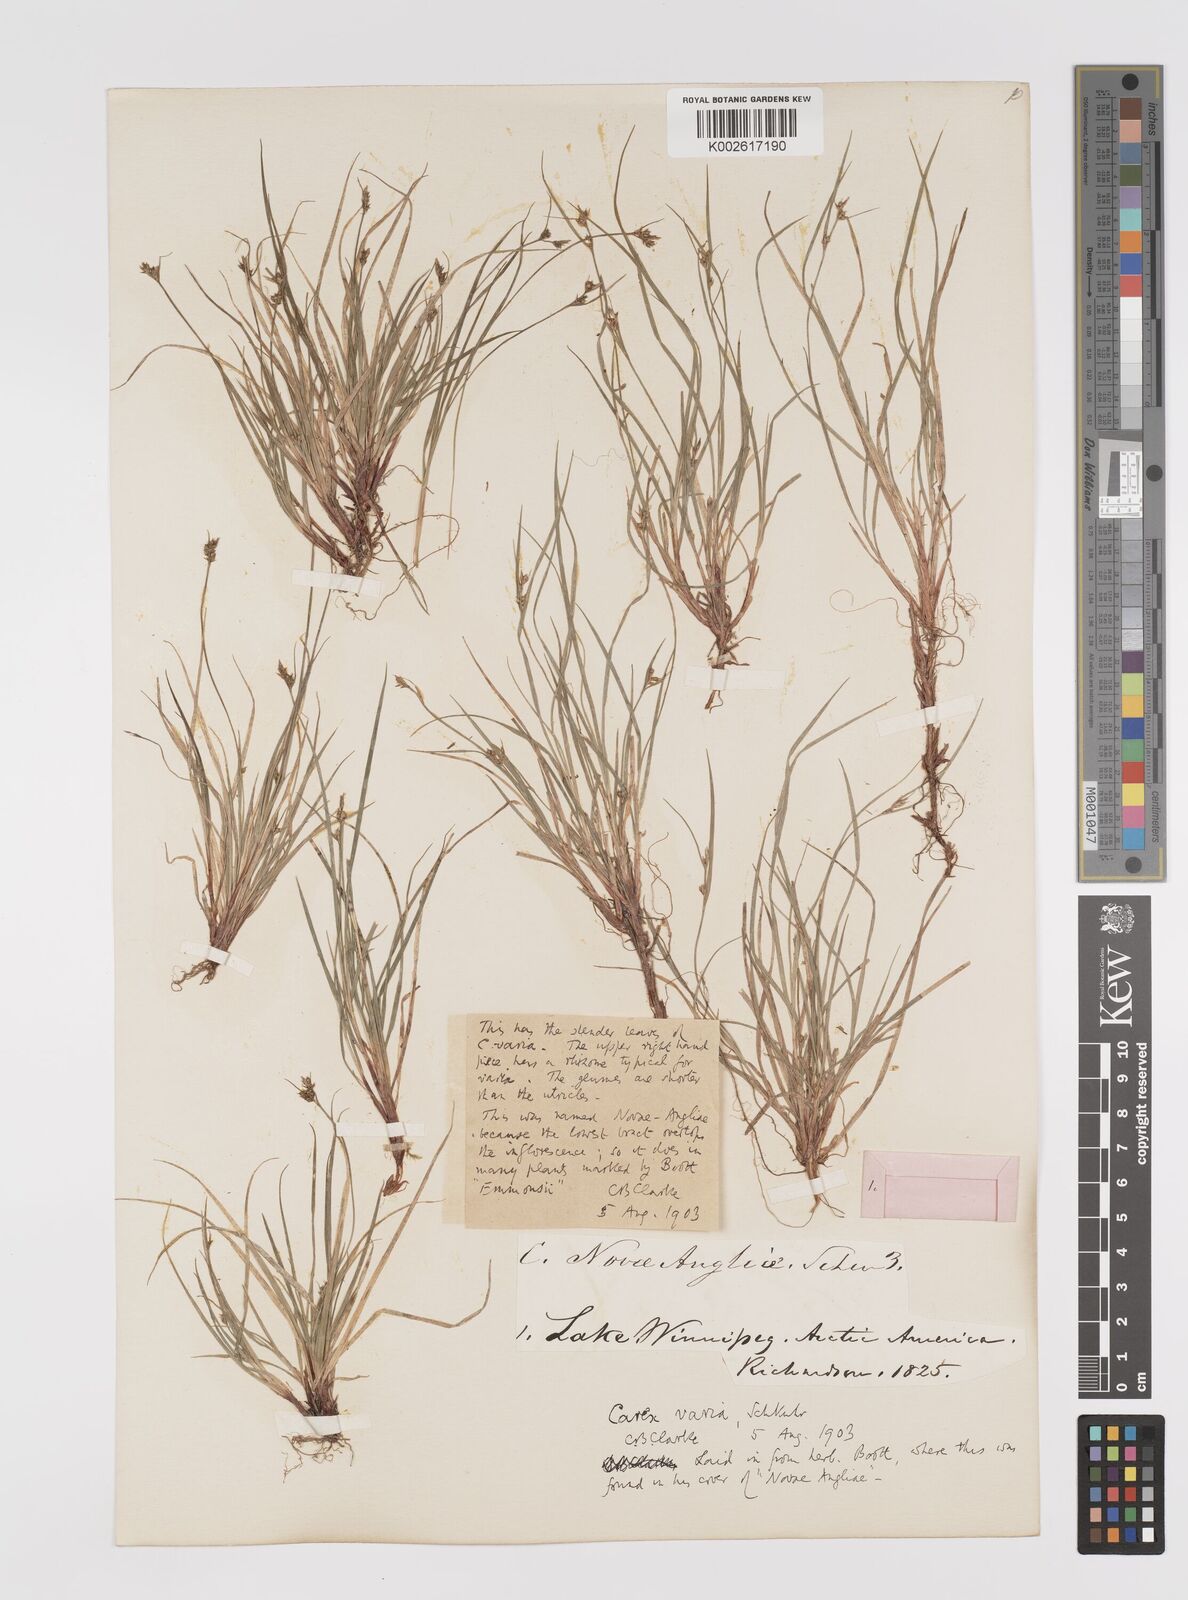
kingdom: Plantae
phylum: Tracheophyta
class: Liliopsida
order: Poales
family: Cyperaceae
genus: Carex
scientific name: Carex albicans
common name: Bellow-beaked sedge
